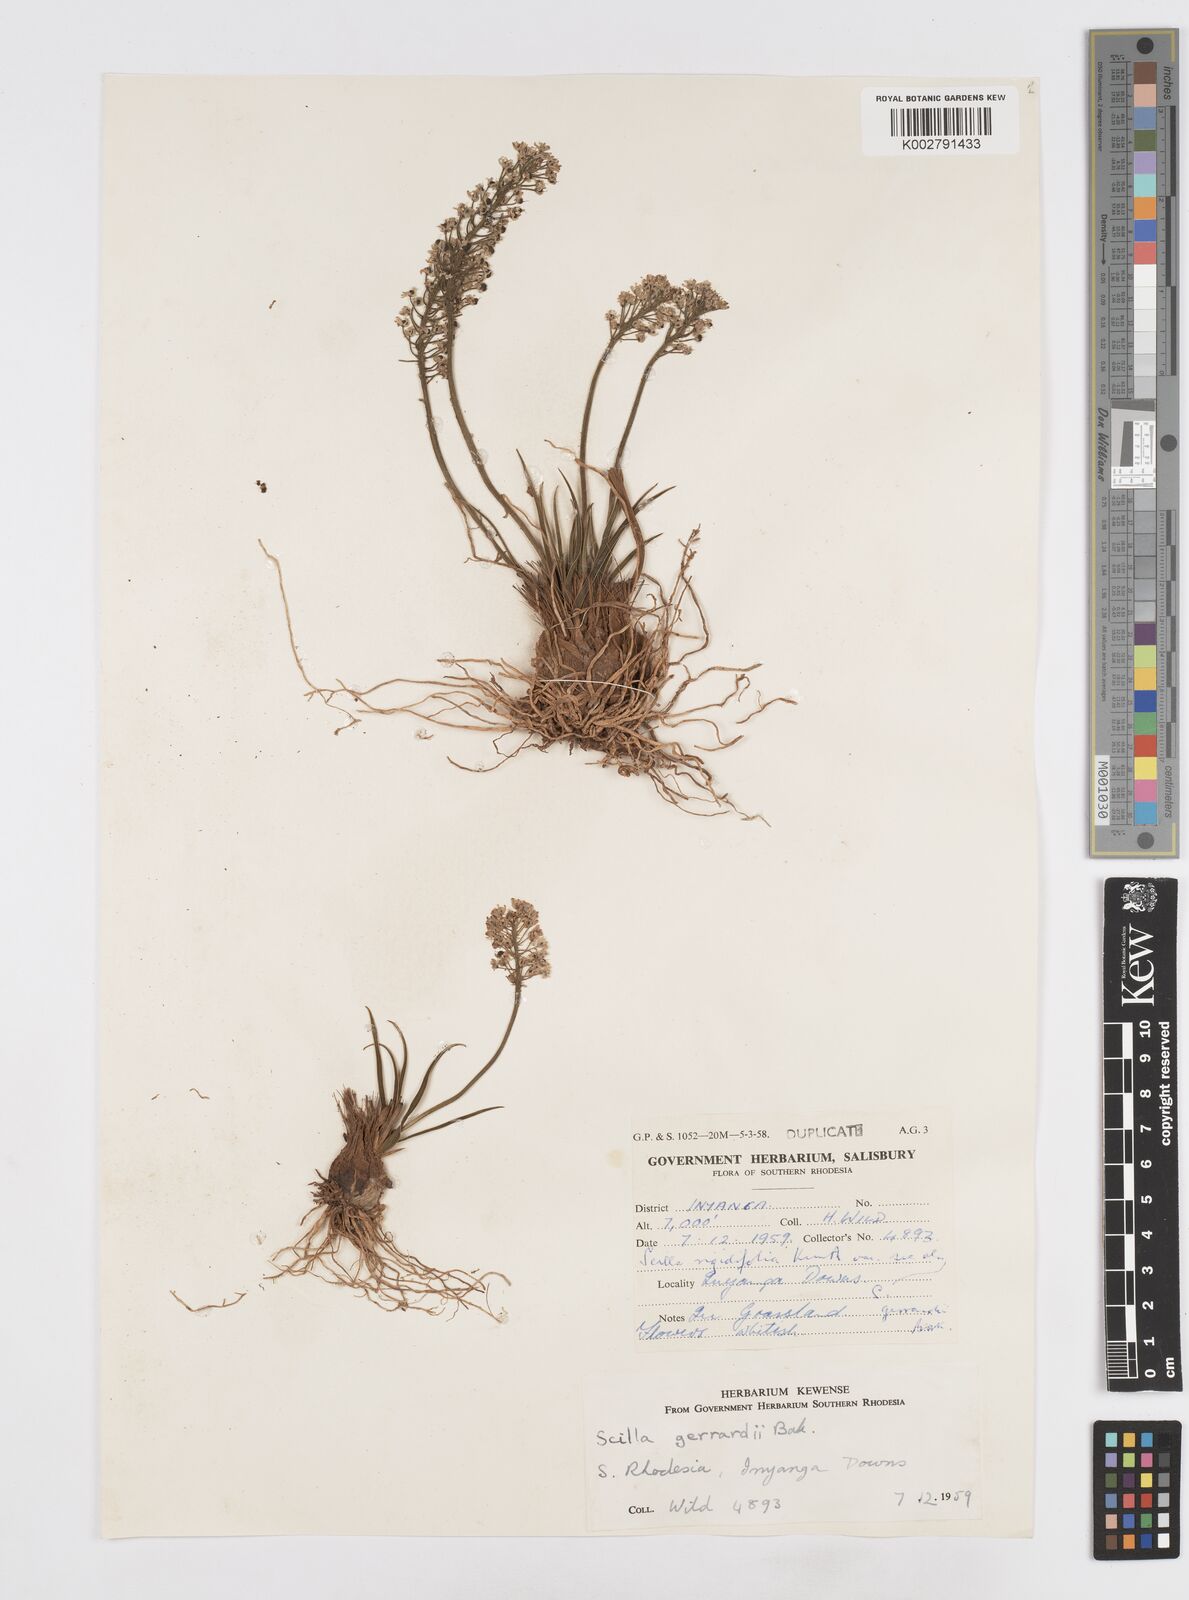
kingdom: Plantae
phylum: Tracheophyta
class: Liliopsida
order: Asparagales
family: Asparagaceae
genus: Schizocarphus
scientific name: Schizocarphus nervosus
